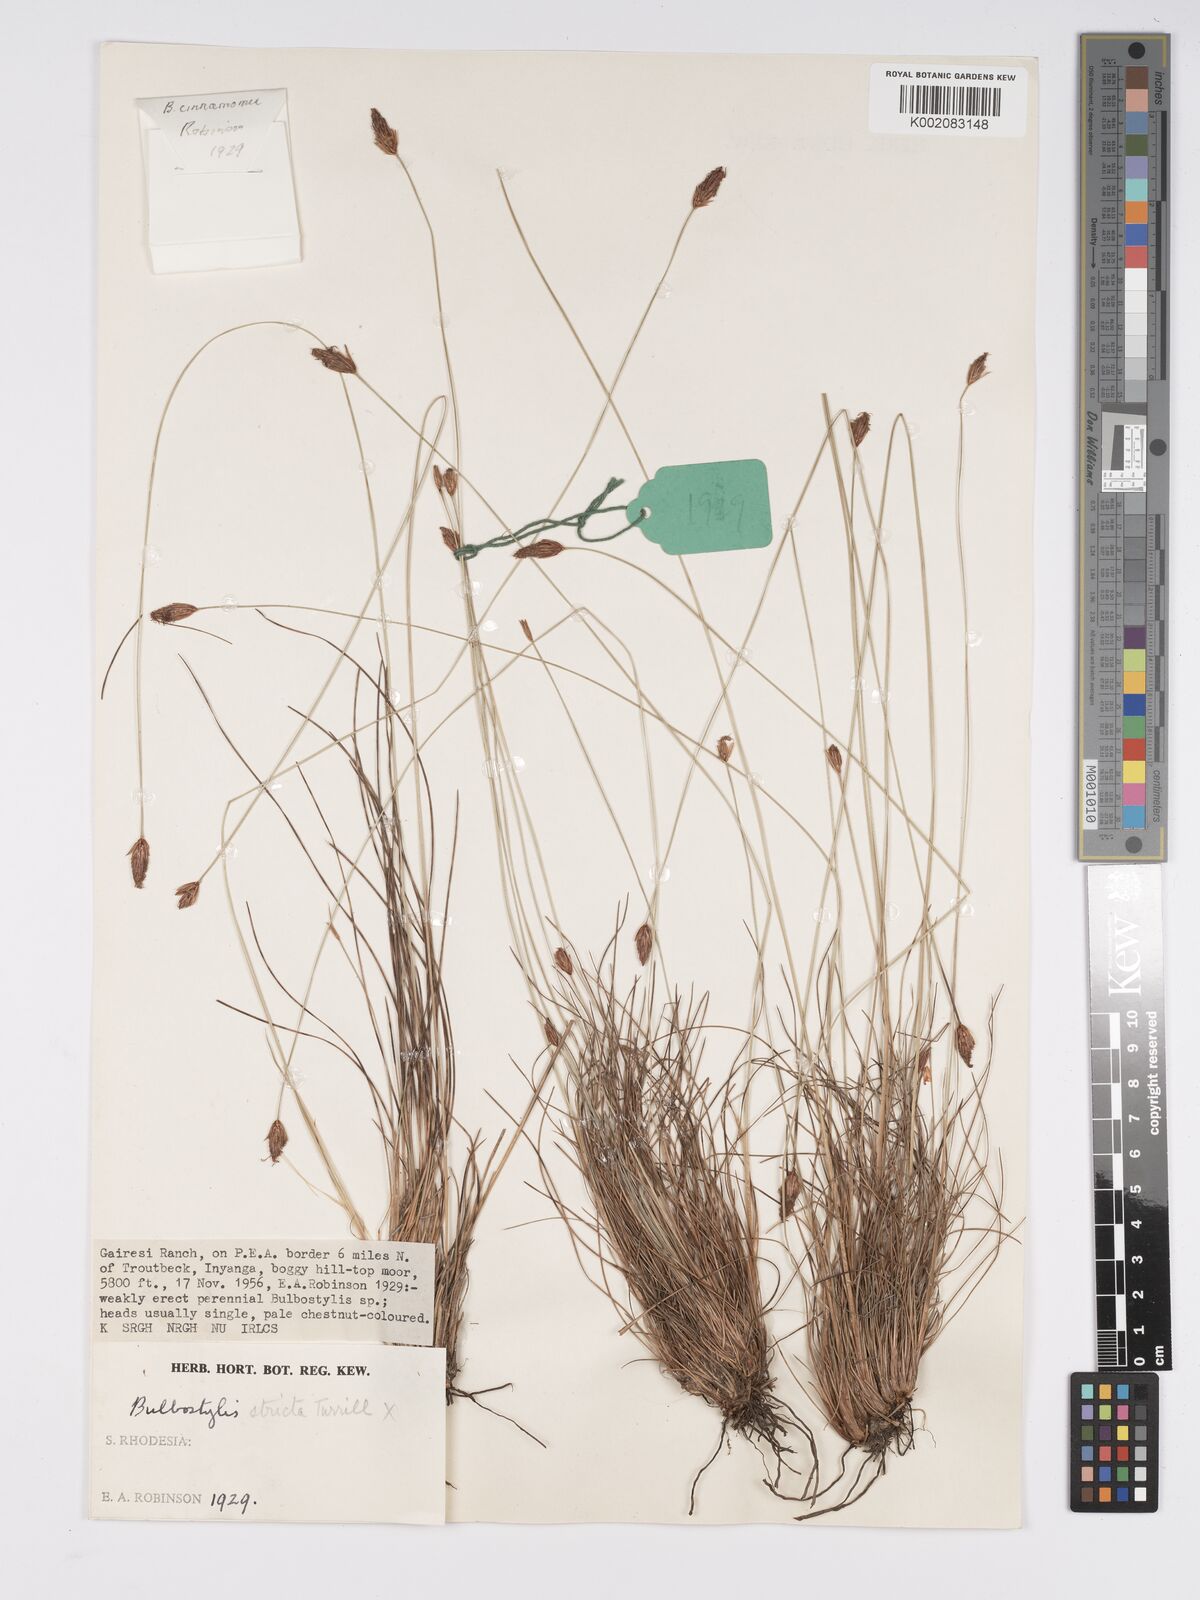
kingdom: Plantae
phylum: Tracheophyta
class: Liliopsida
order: Poales
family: Cyperaceae
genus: Bulbostylis
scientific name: Bulbostylis schoenoides
